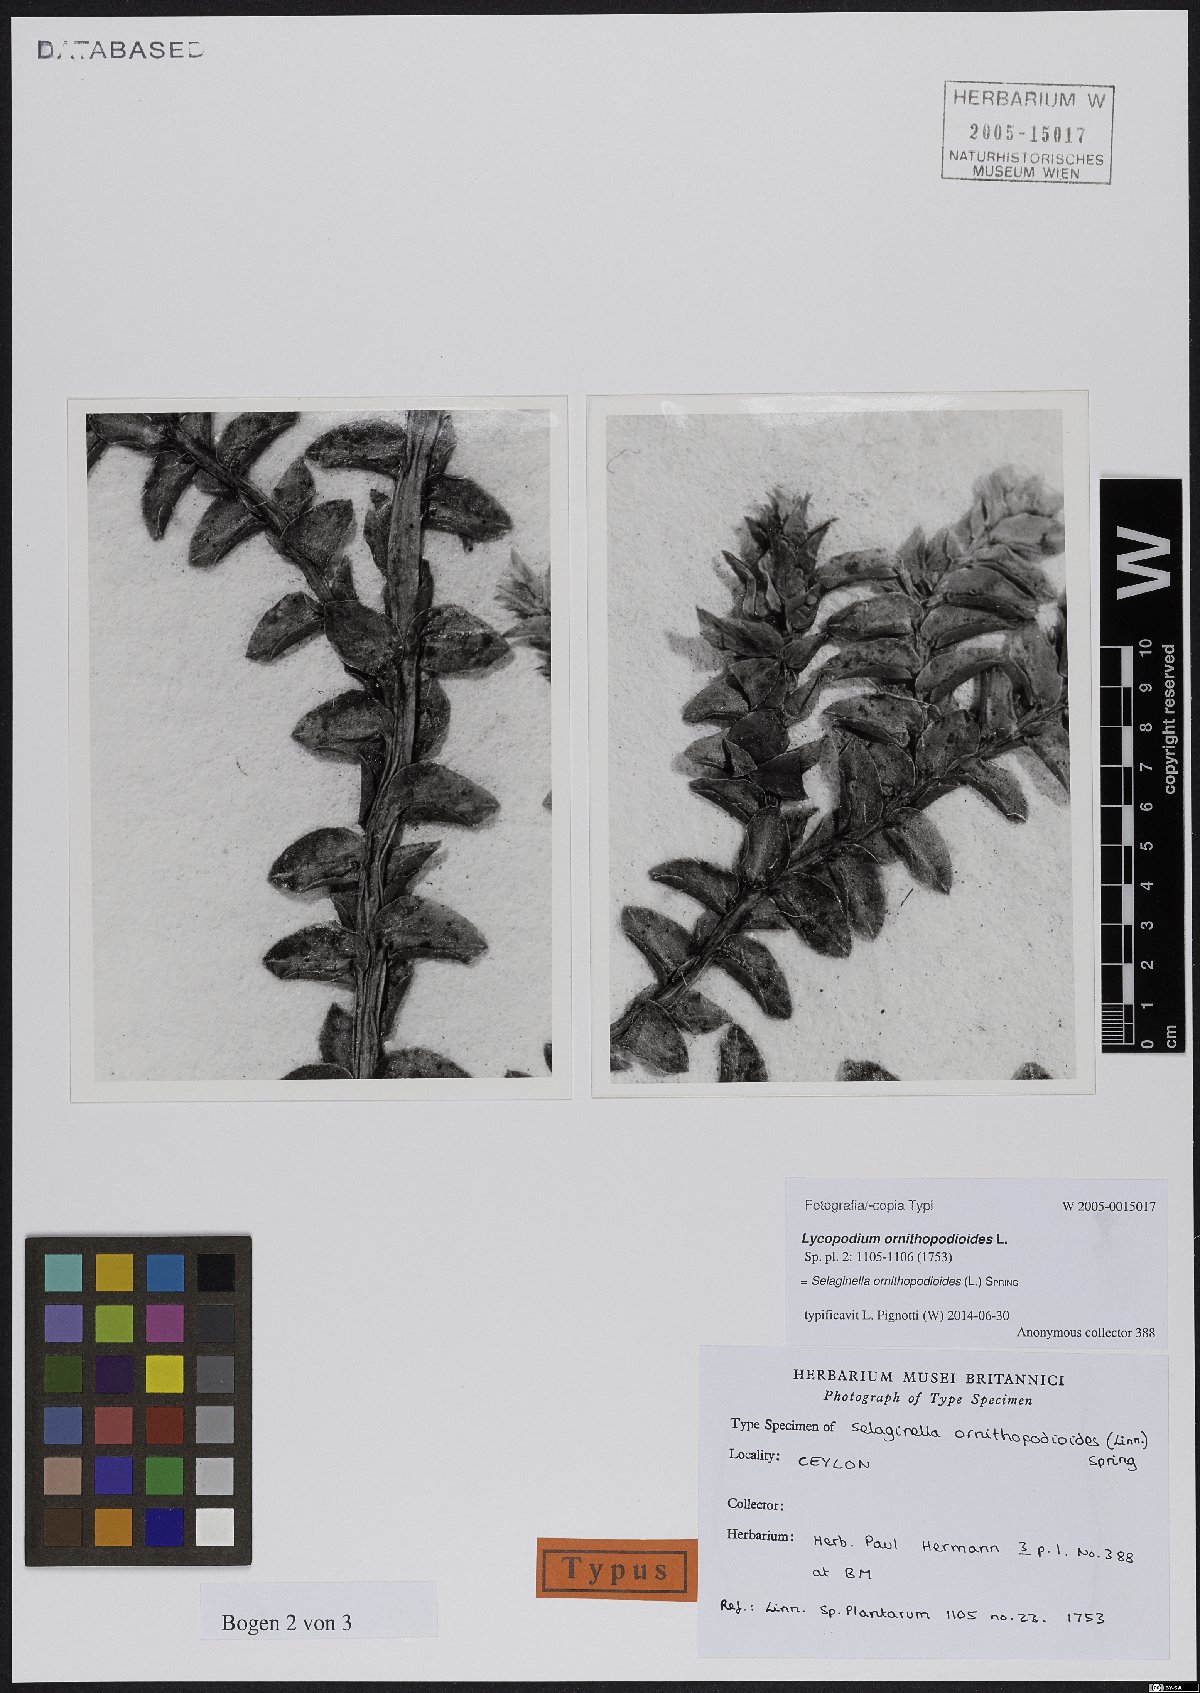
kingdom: Plantae
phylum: Tracheophyta
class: Lycopodiopsida
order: Selaginellales
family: Selaginellaceae
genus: Selaginella
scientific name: Selaginella ornithopodioides
